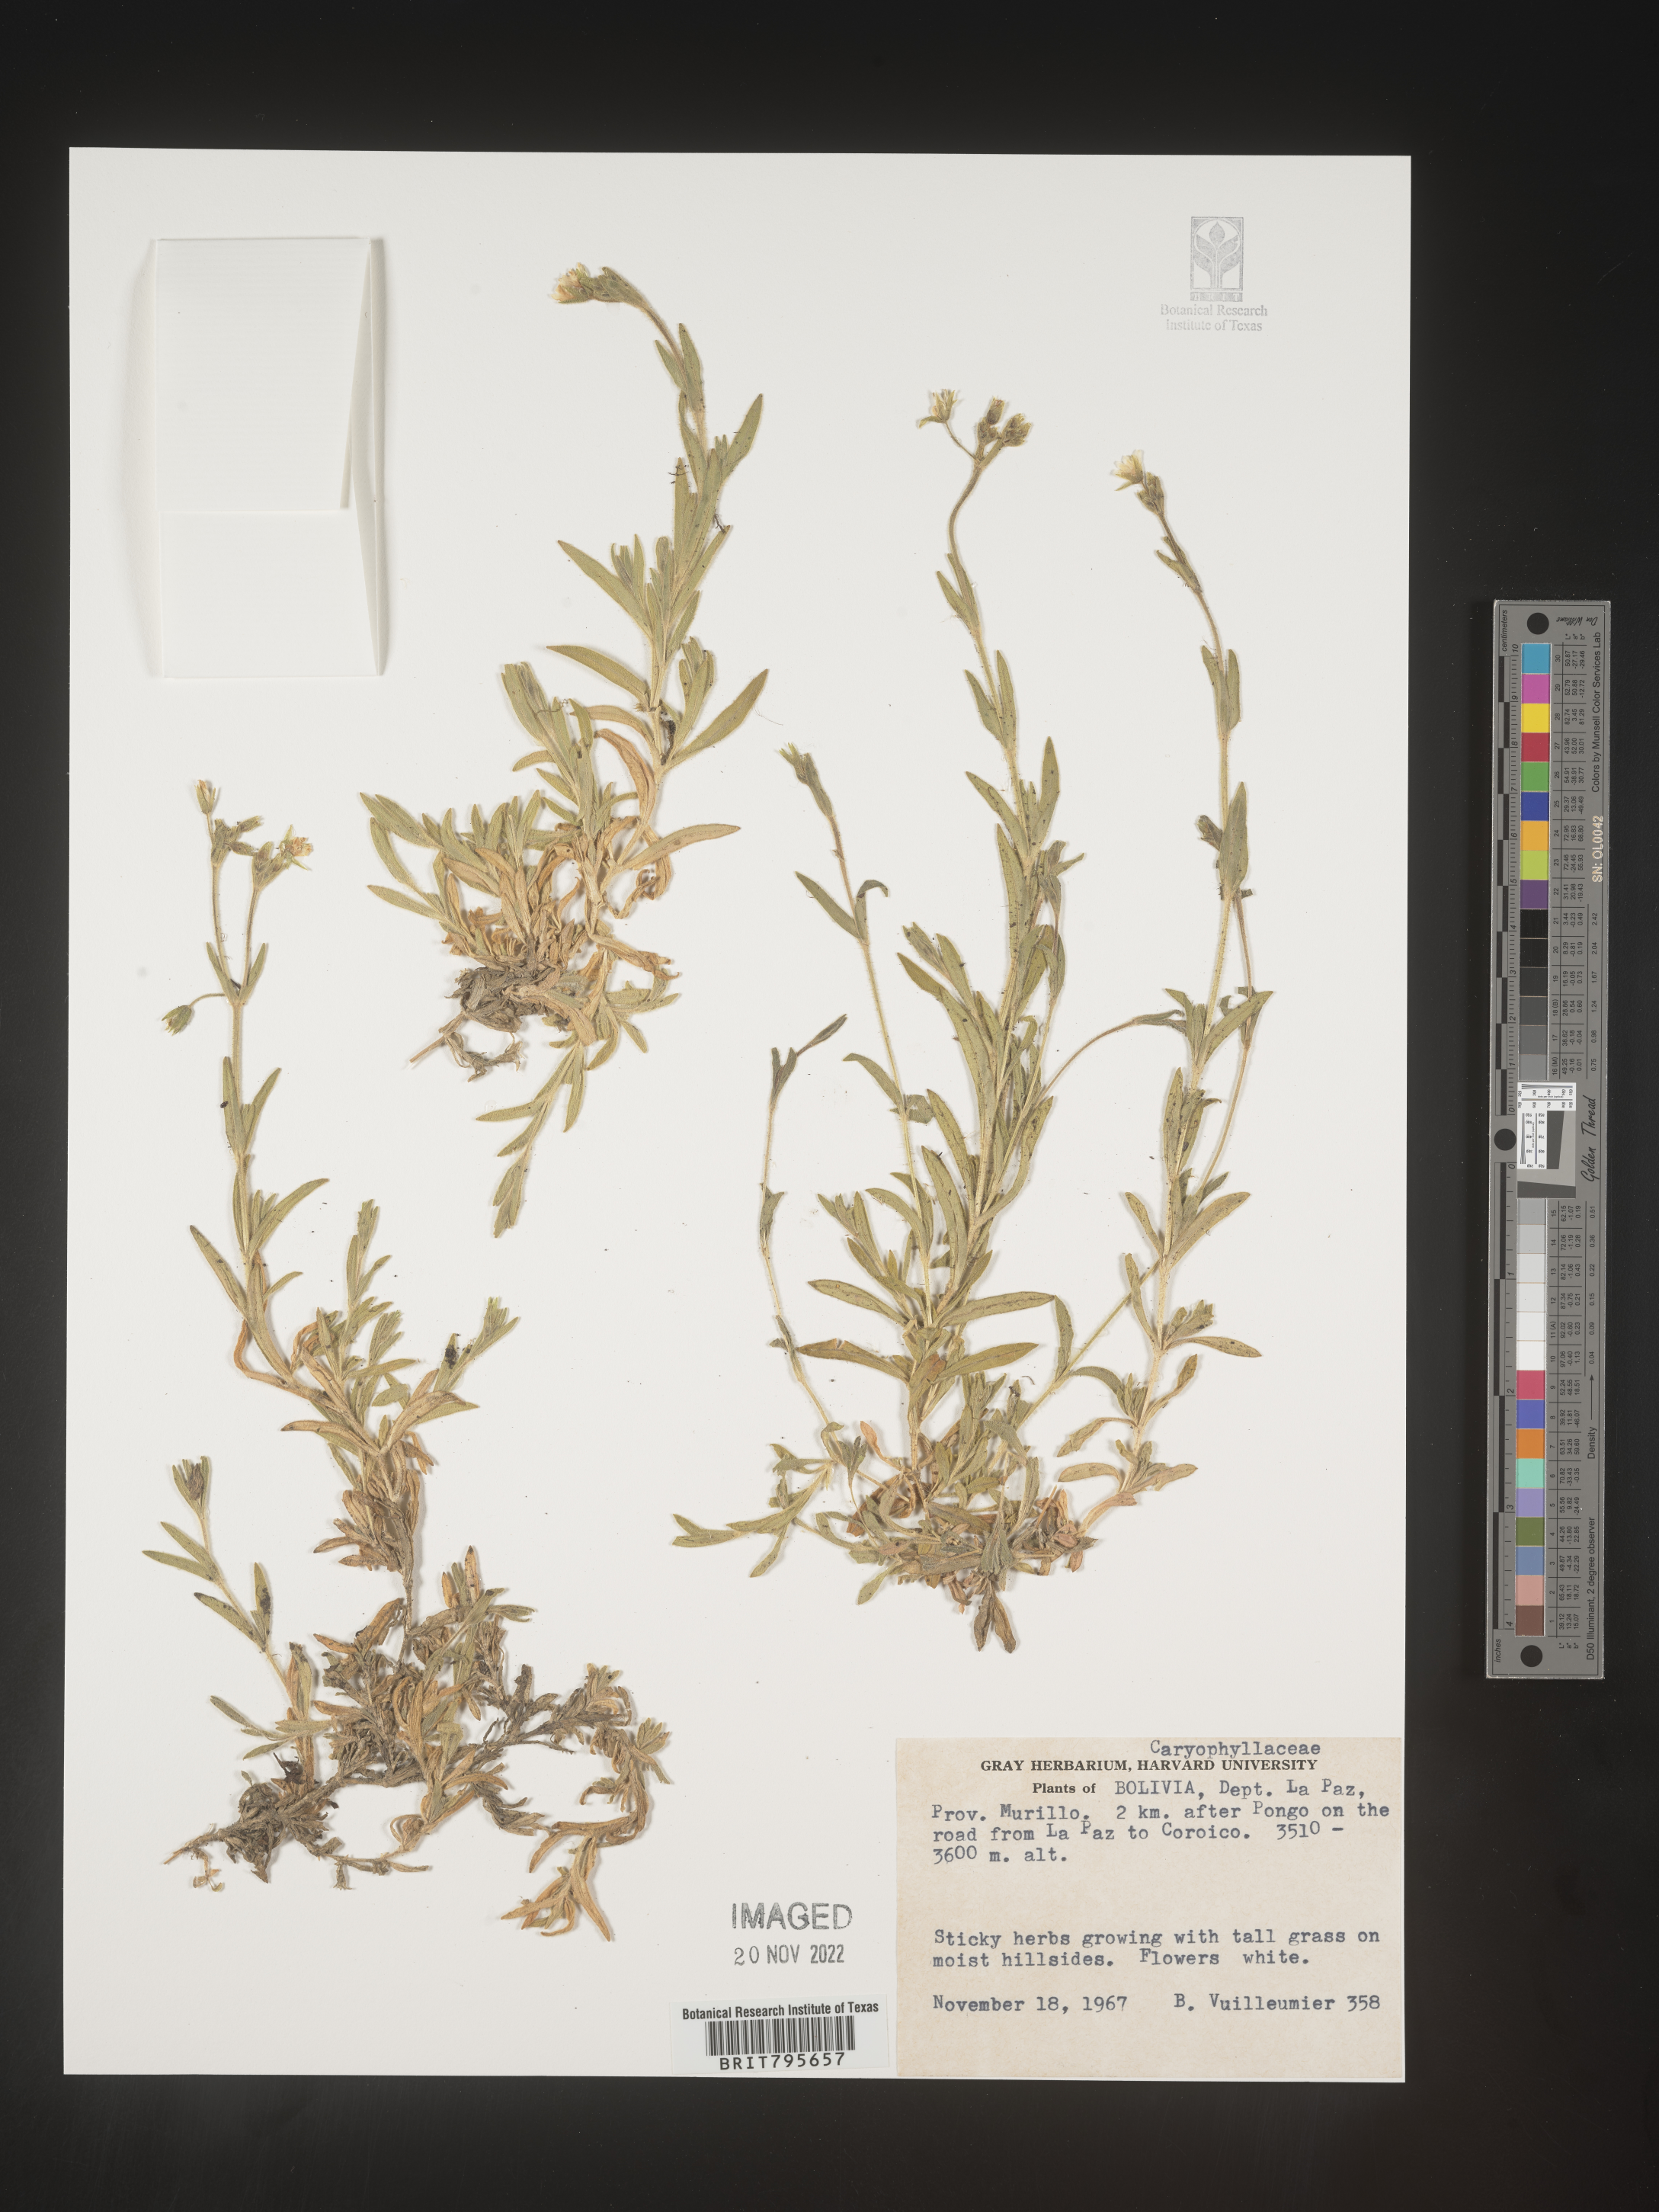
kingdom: Plantae
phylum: Tracheophyta
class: Magnoliopsida
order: Caryophyllales
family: Caryophyllaceae
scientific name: Caryophyllaceae
